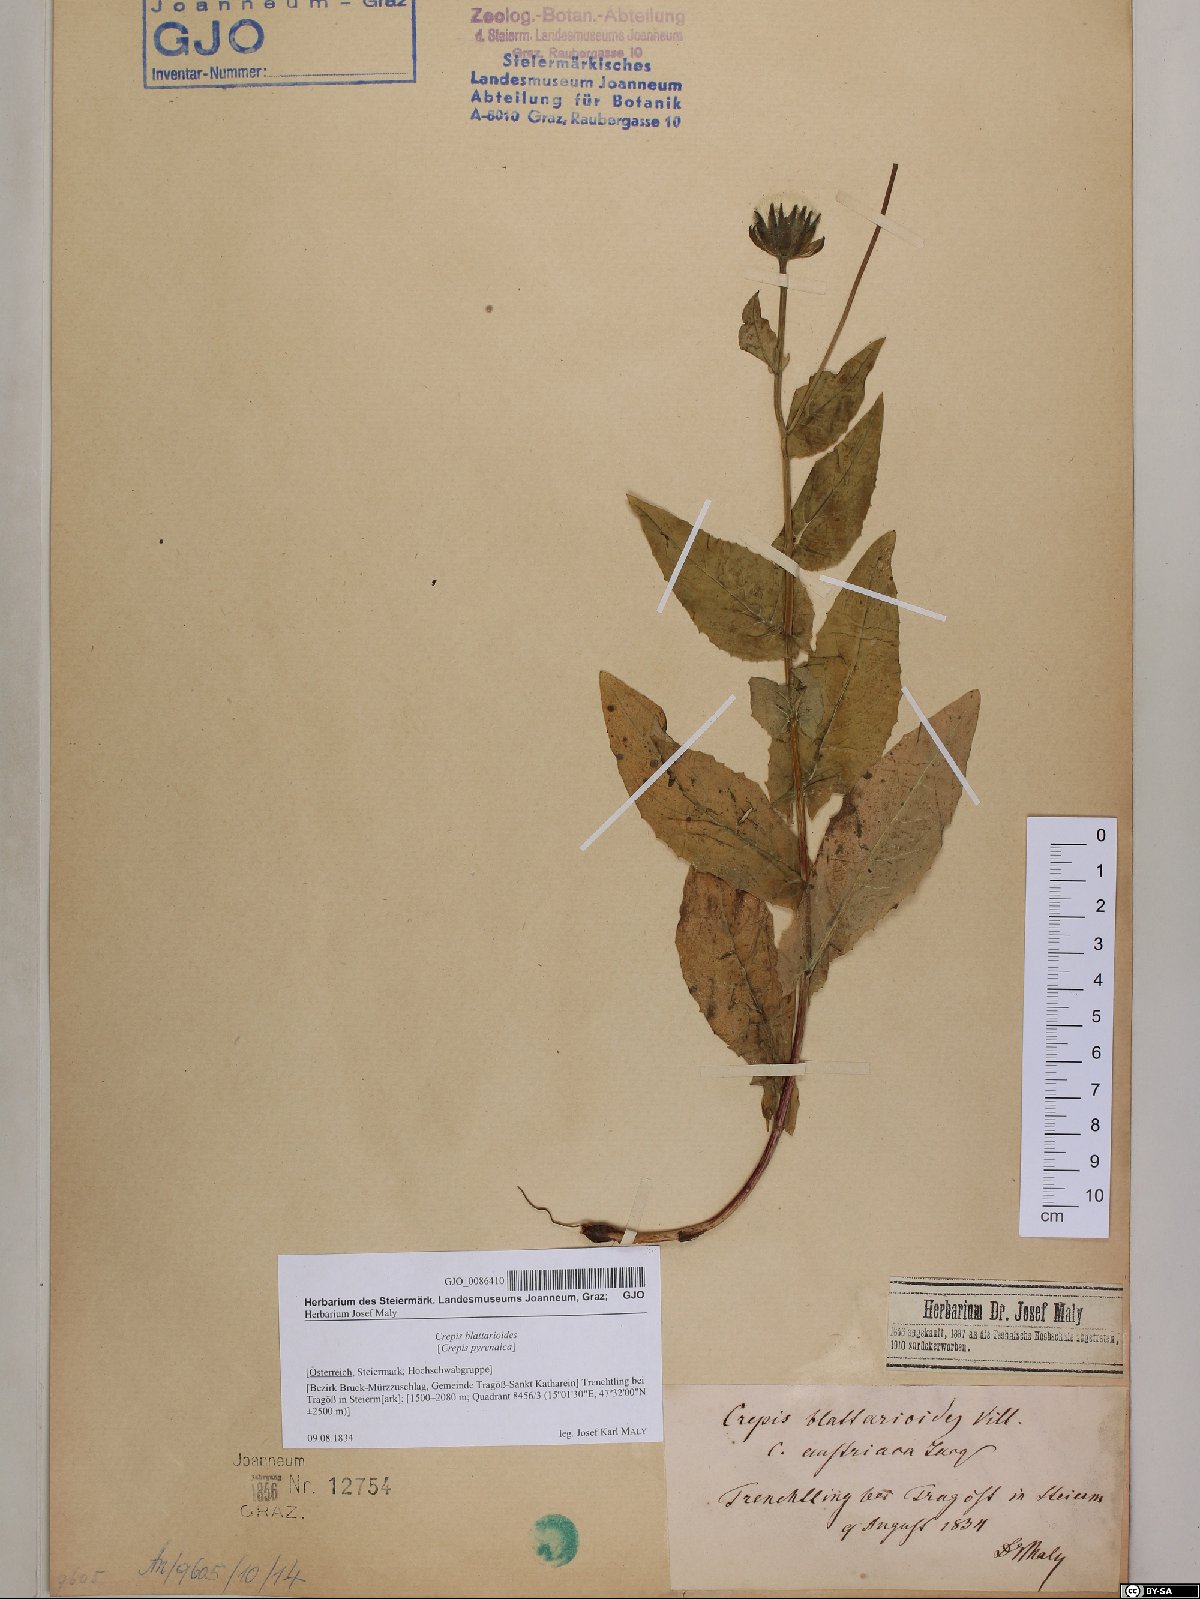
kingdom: Plantae
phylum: Tracheophyta
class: Magnoliopsida
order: Asterales
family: Asteraceae
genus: Crepis
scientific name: Crepis blattarioides
